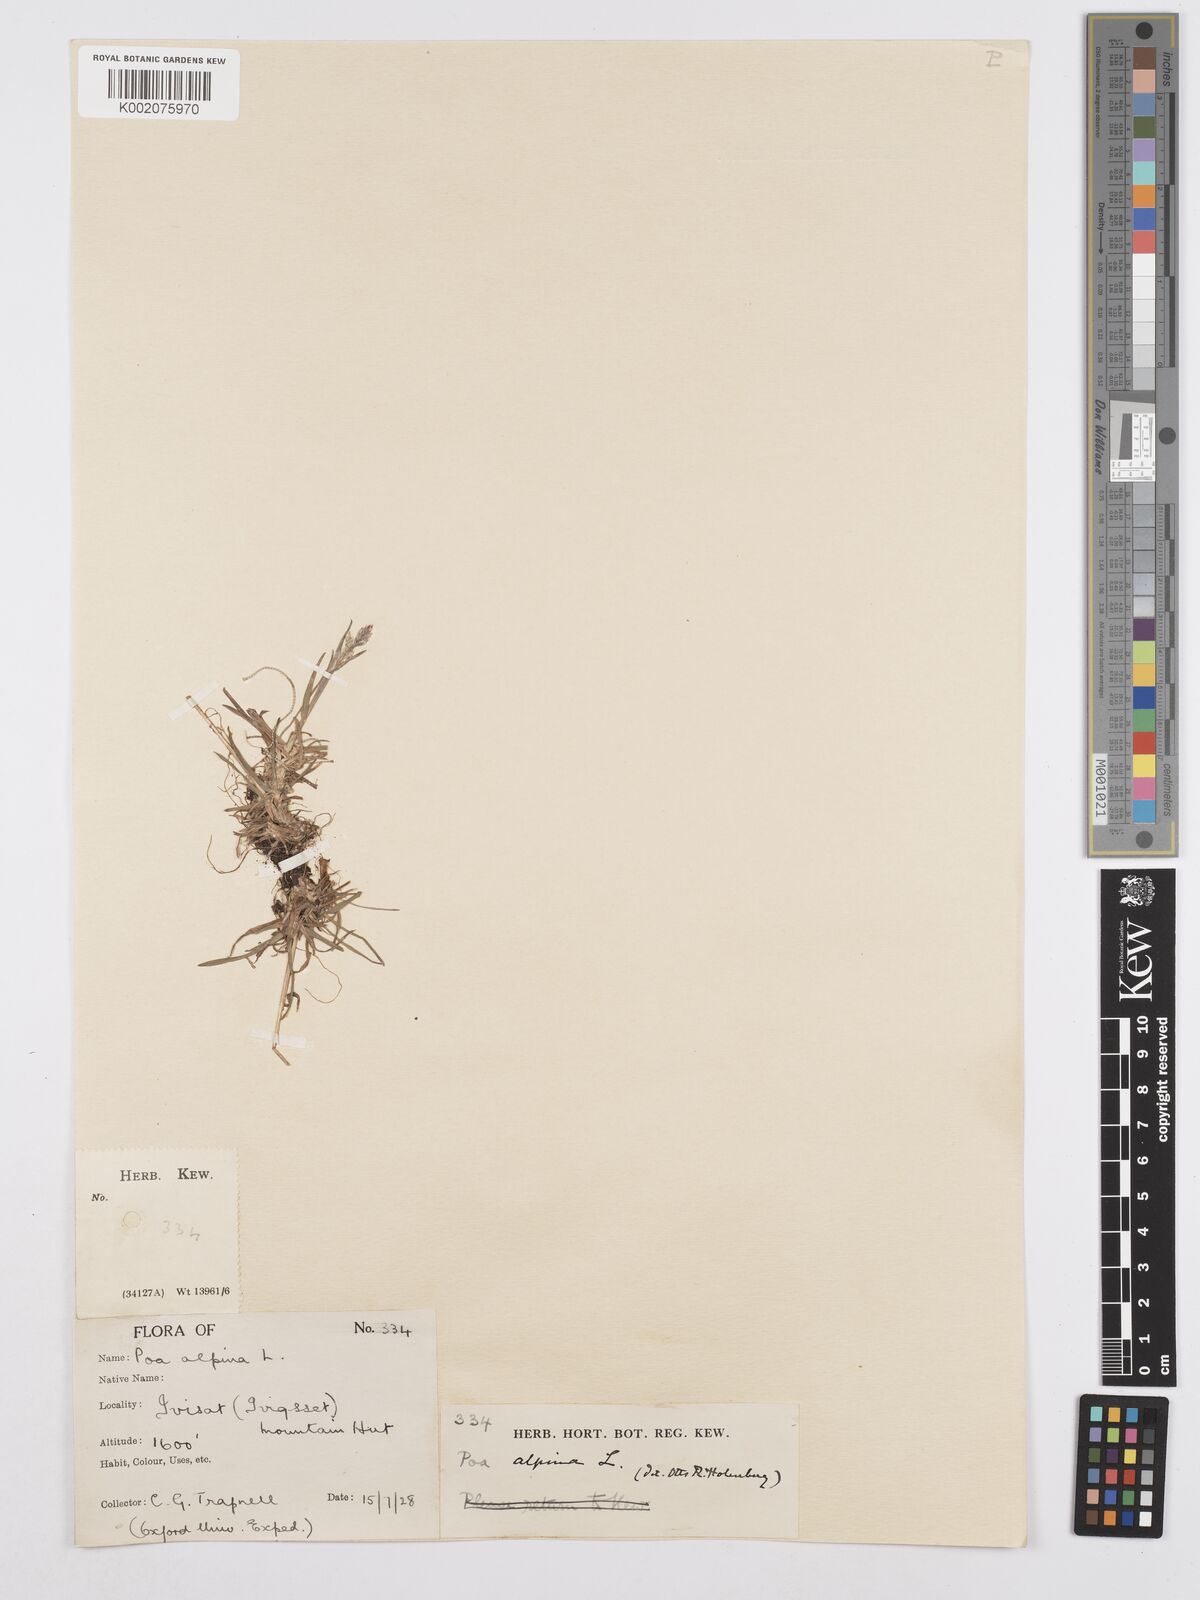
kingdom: Plantae
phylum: Tracheophyta
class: Liliopsida
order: Poales
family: Poaceae
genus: Poa
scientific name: Poa alpina
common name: Alpine bluegrass
